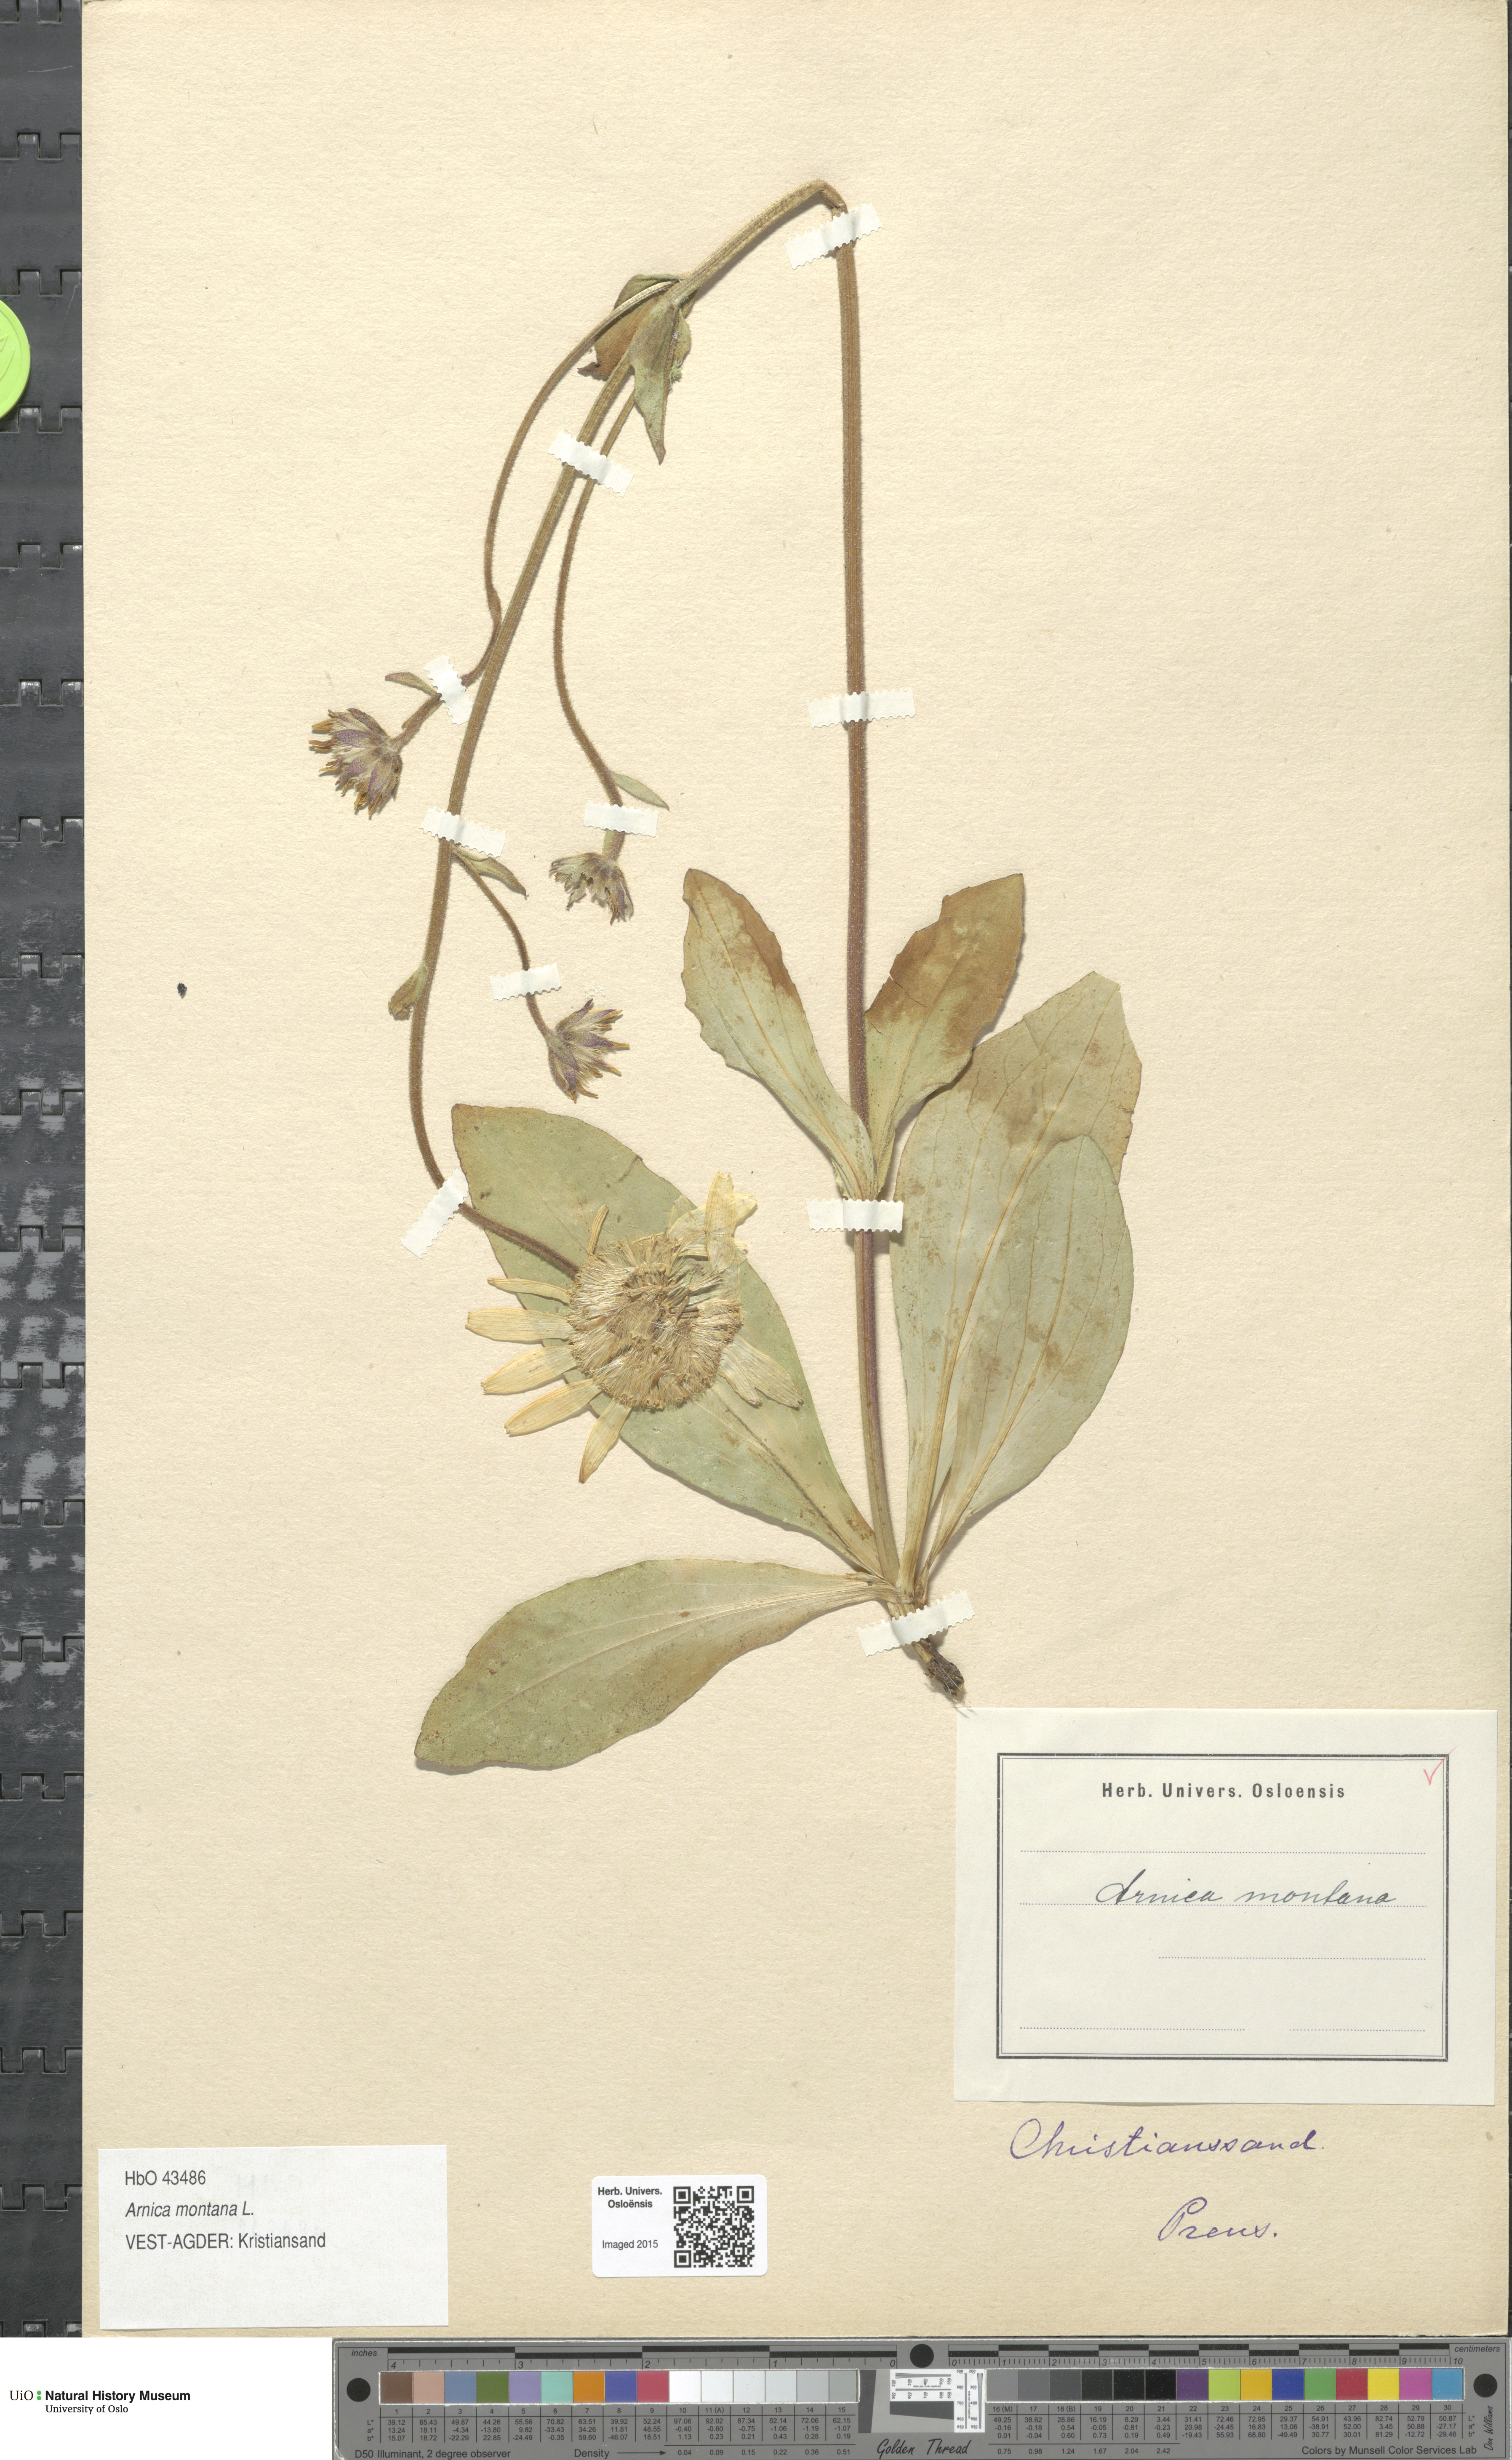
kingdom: Plantae
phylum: Tracheophyta
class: Magnoliopsida
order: Asterales
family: Asteraceae
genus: Arnica
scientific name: Arnica montana
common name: Leopard's bane
